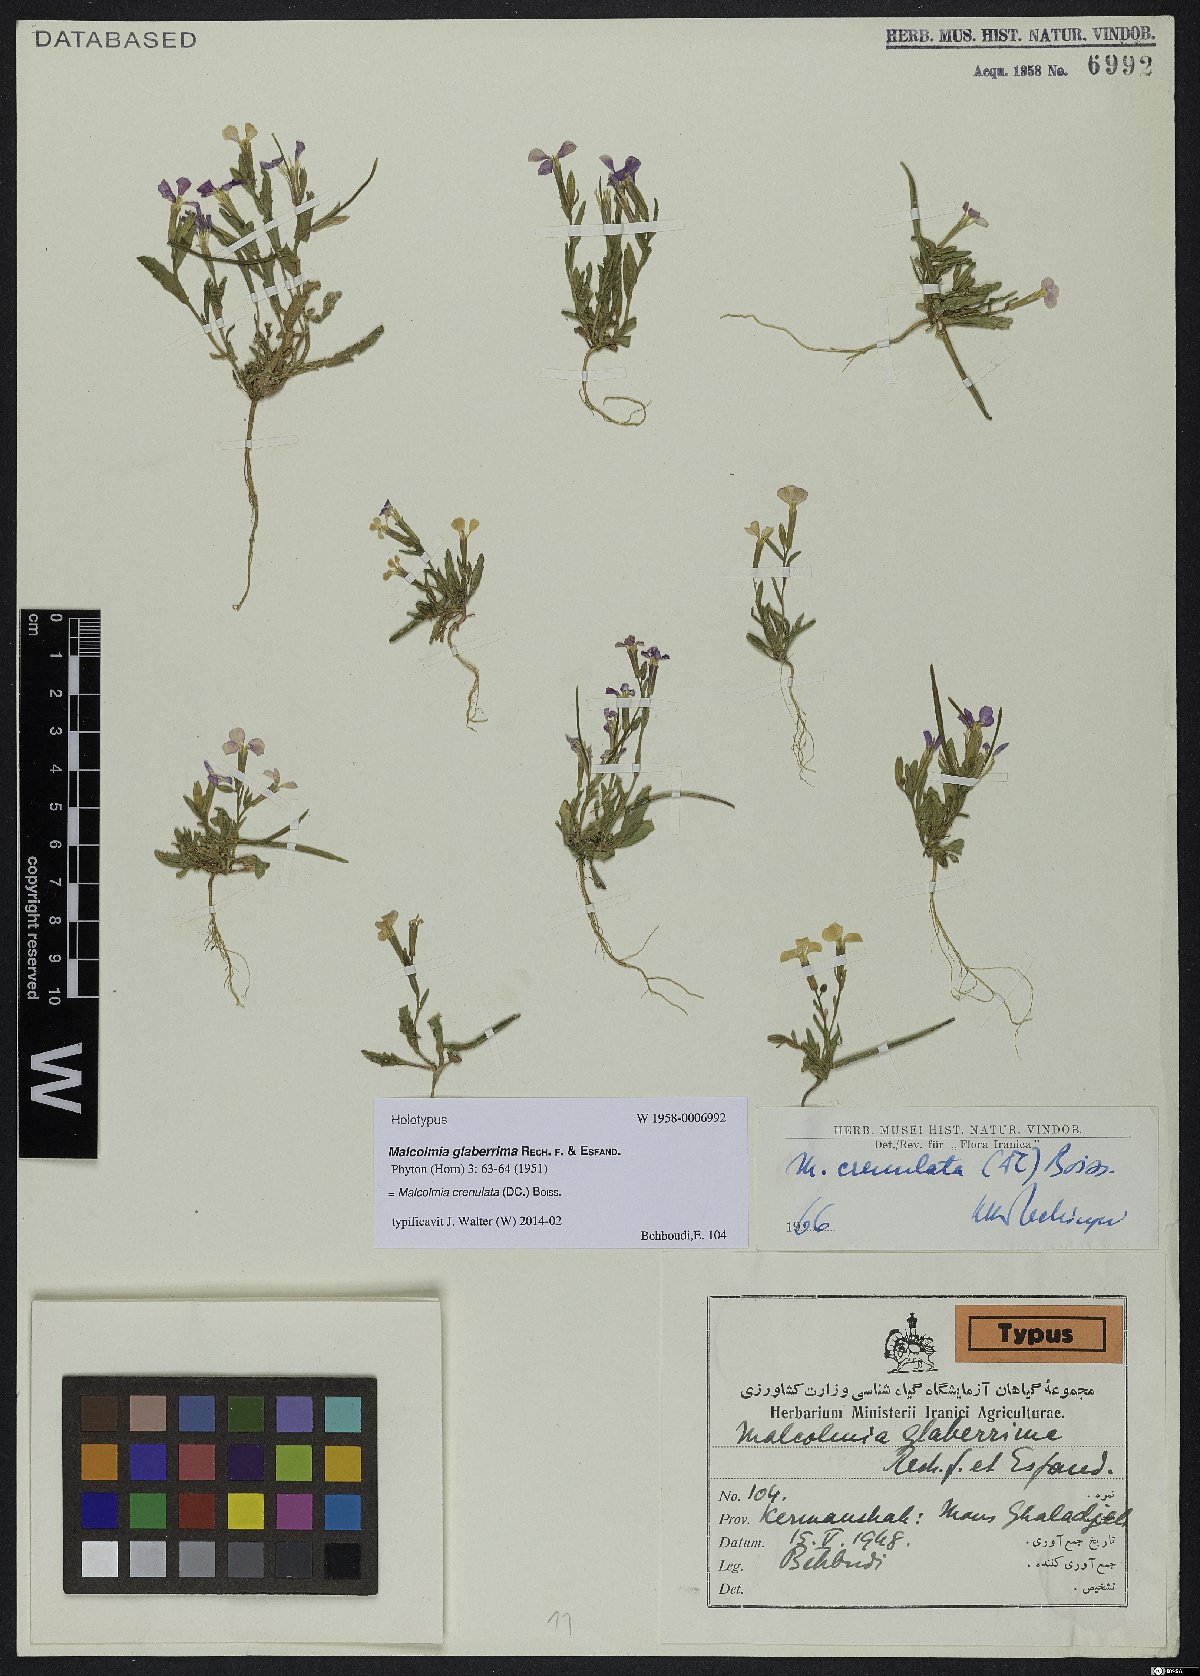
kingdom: Plantae
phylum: Tracheophyta
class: Magnoliopsida
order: Brassicales
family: Brassicaceae
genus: Zuvanda
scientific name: Zuvanda crenulata
